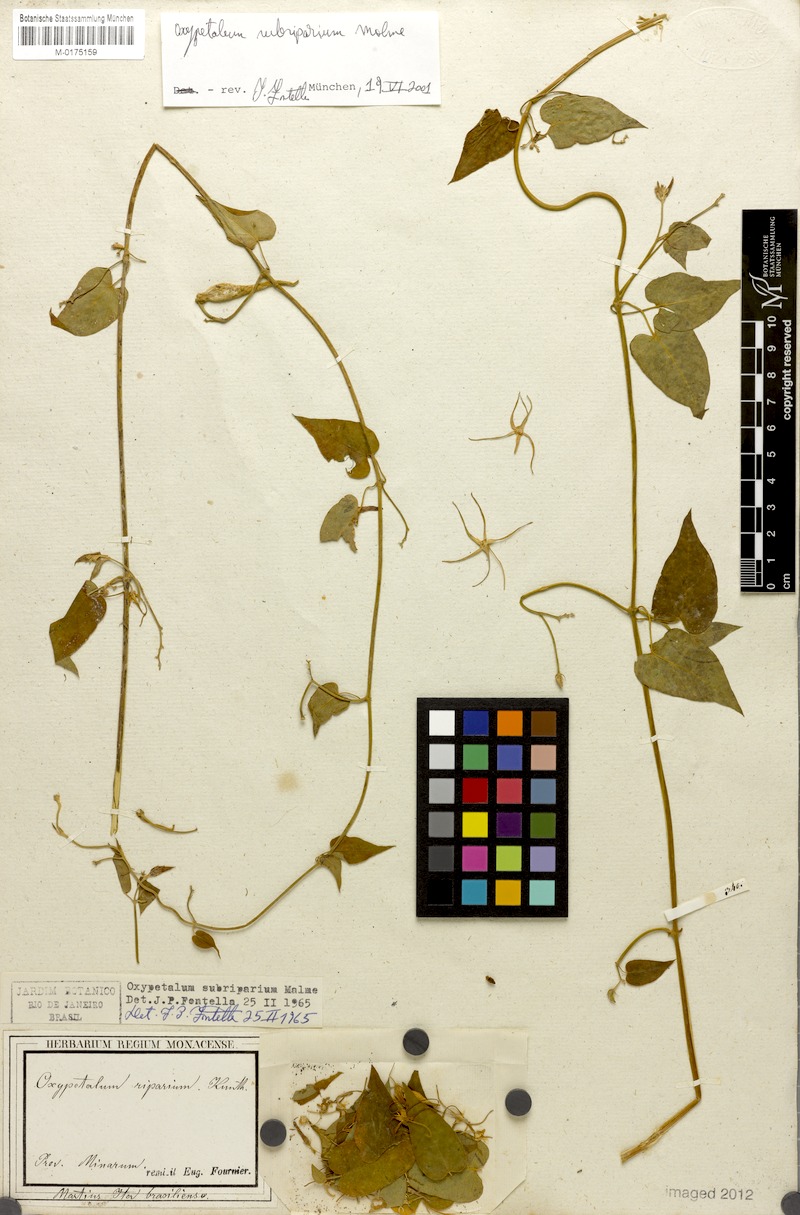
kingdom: Plantae
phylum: Tracheophyta
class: Magnoliopsida
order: Gentianales
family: Apocynaceae
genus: Oxypetalum
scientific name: Oxypetalum cordifolium
